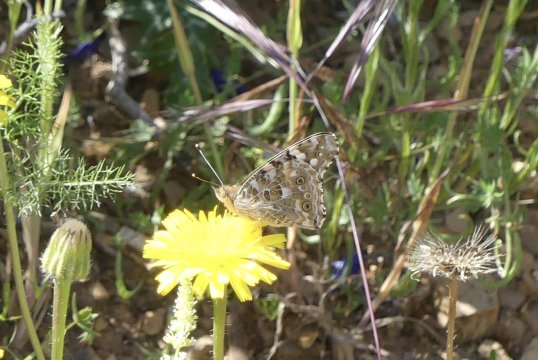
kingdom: Animalia
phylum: Arthropoda
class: Insecta
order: Lepidoptera
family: Nymphalidae
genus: Vanessa
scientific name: Vanessa cardui
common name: Painted Lady
